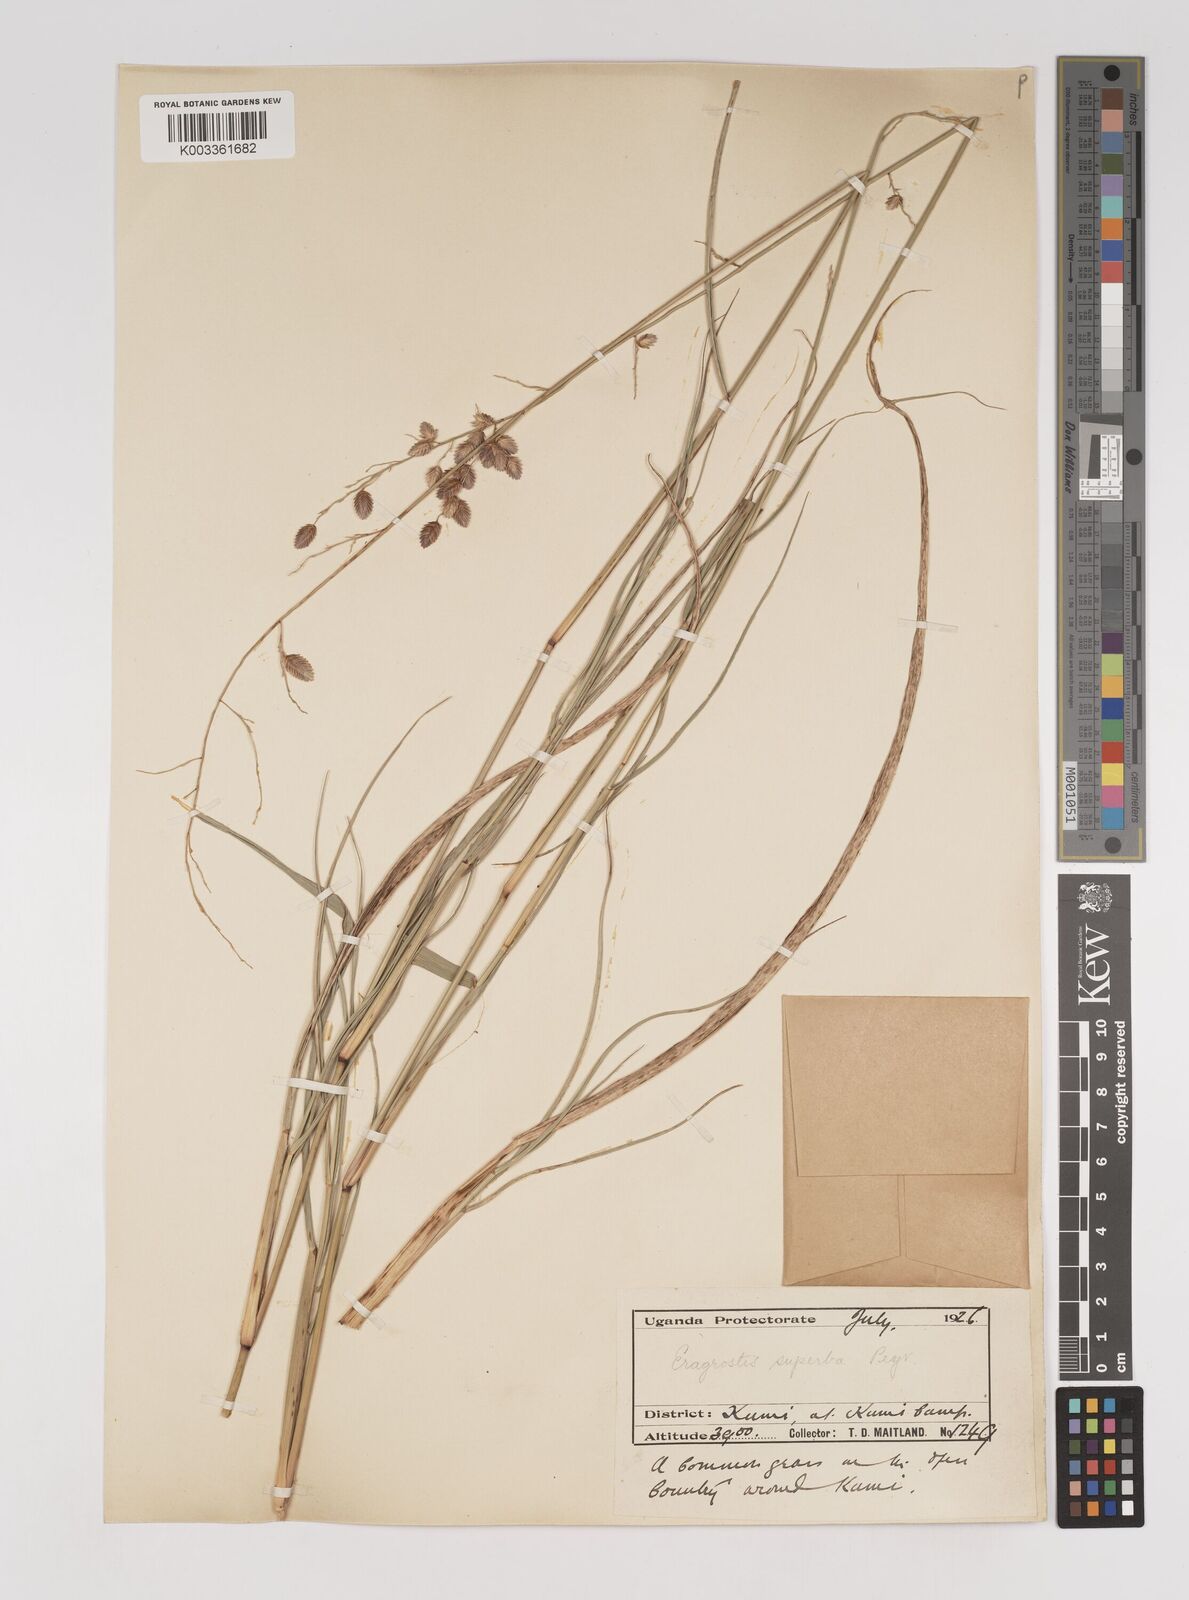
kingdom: Plantae
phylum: Tracheophyta
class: Liliopsida
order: Poales
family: Poaceae
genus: Eragrostis
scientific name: Eragrostis superba
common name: Wilman lovegrass
